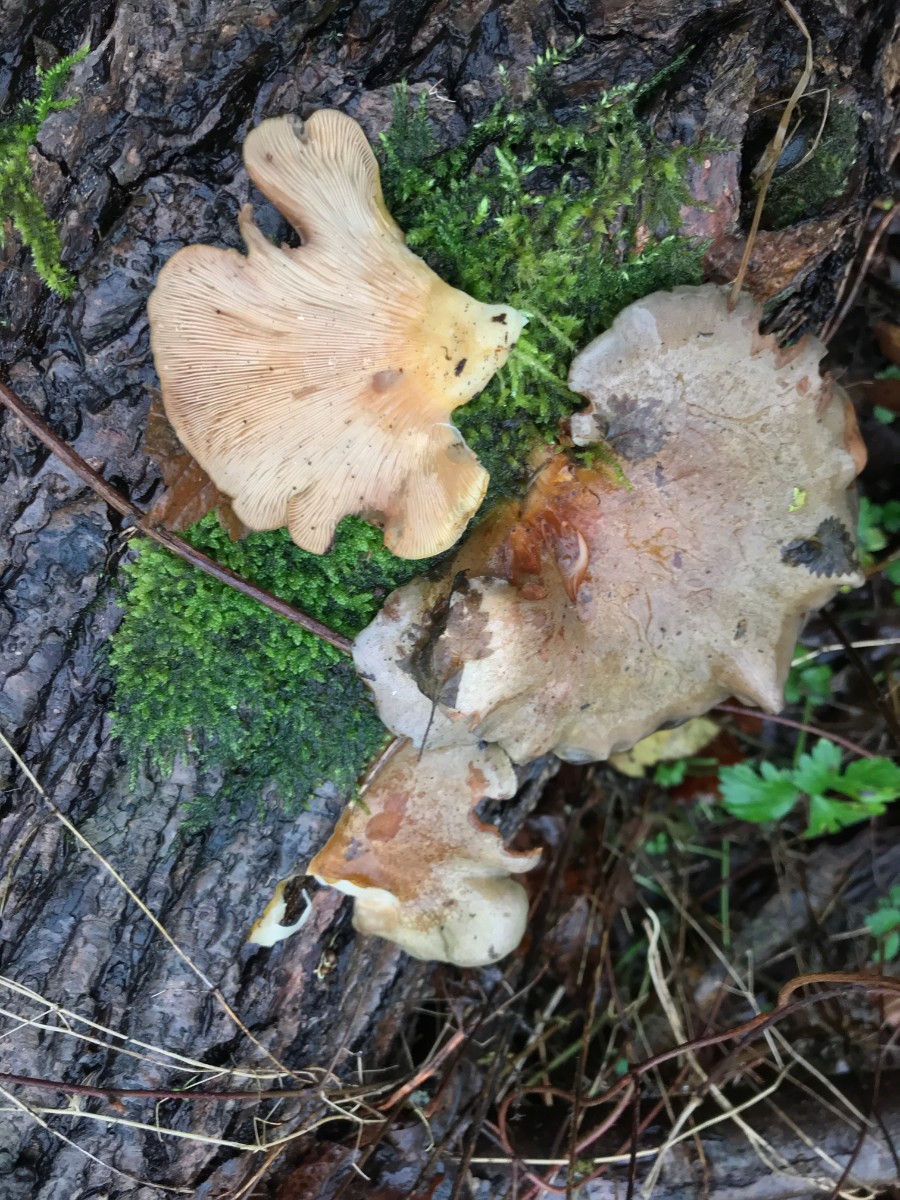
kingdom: Fungi
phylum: Basidiomycota
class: Agaricomycetes
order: Agaricales
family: Sarcomyxaceae
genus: Sarcomyxa
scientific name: Sarcomyxa serotina
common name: gummihat
